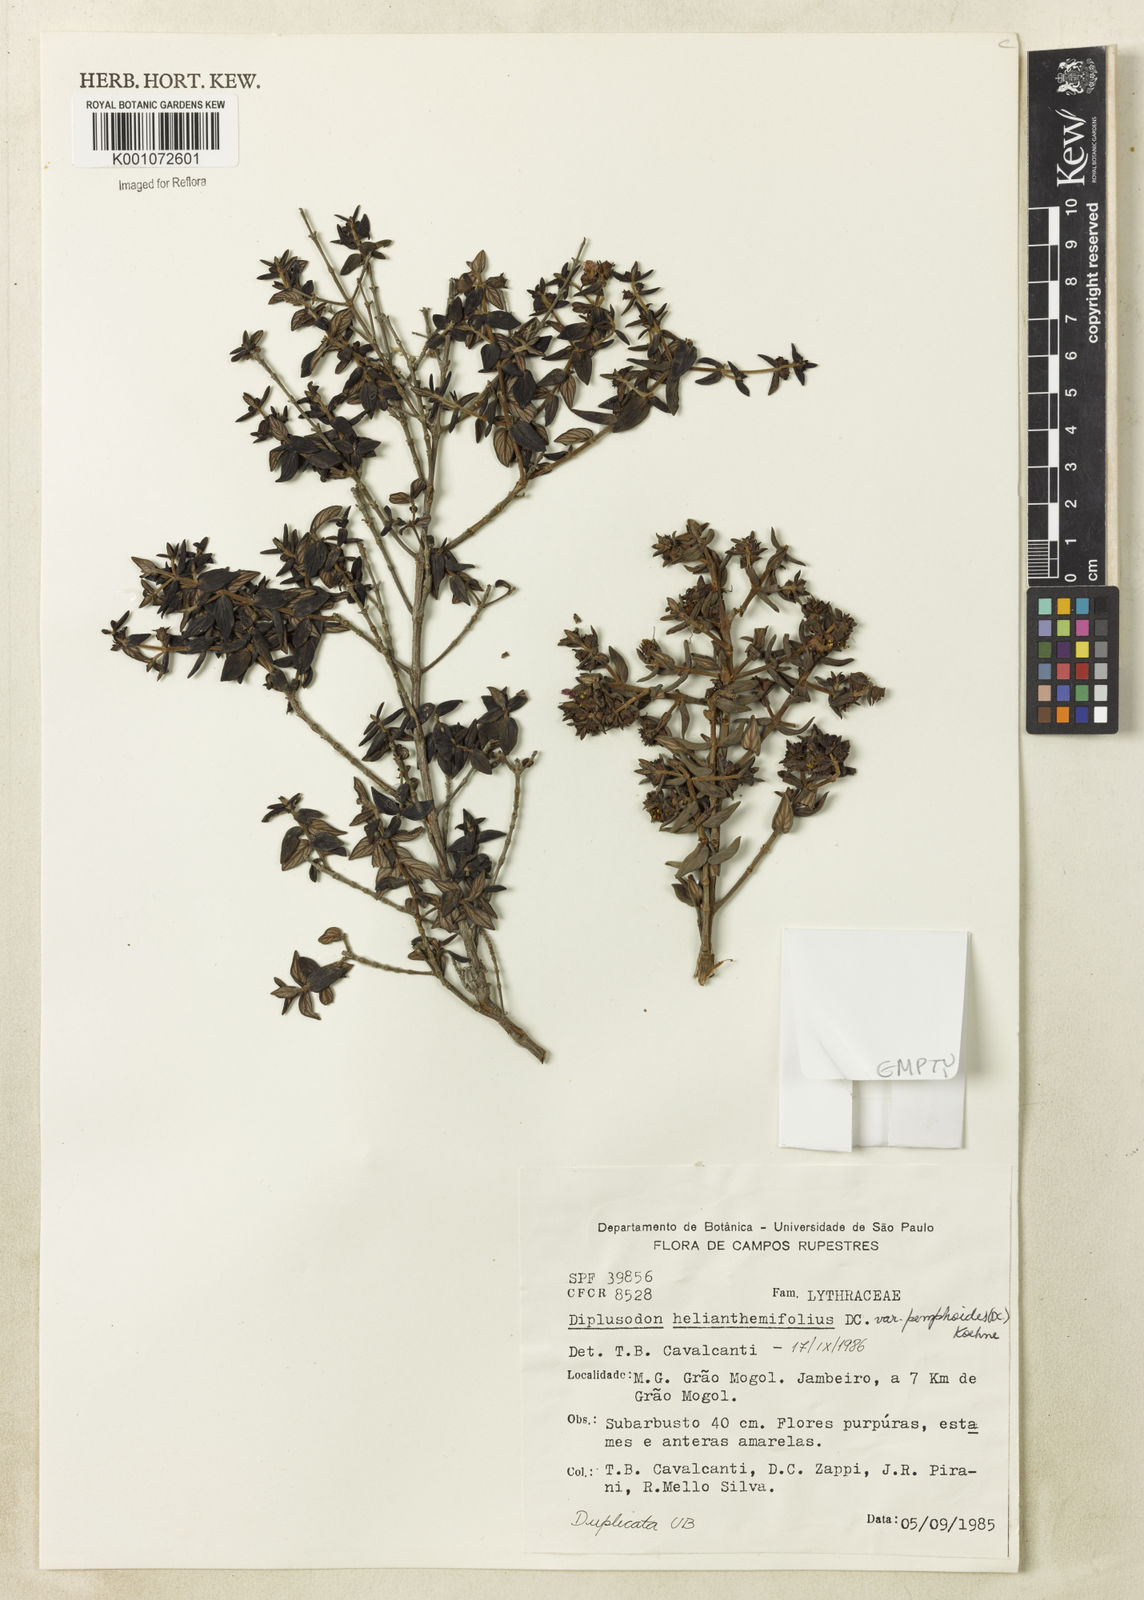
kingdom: Plantae
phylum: Tracheophyta
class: Magnoliopsida
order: Myrtales
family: Lythraceae
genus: Diplusodon
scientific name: Diplusodon helianthemifolius
